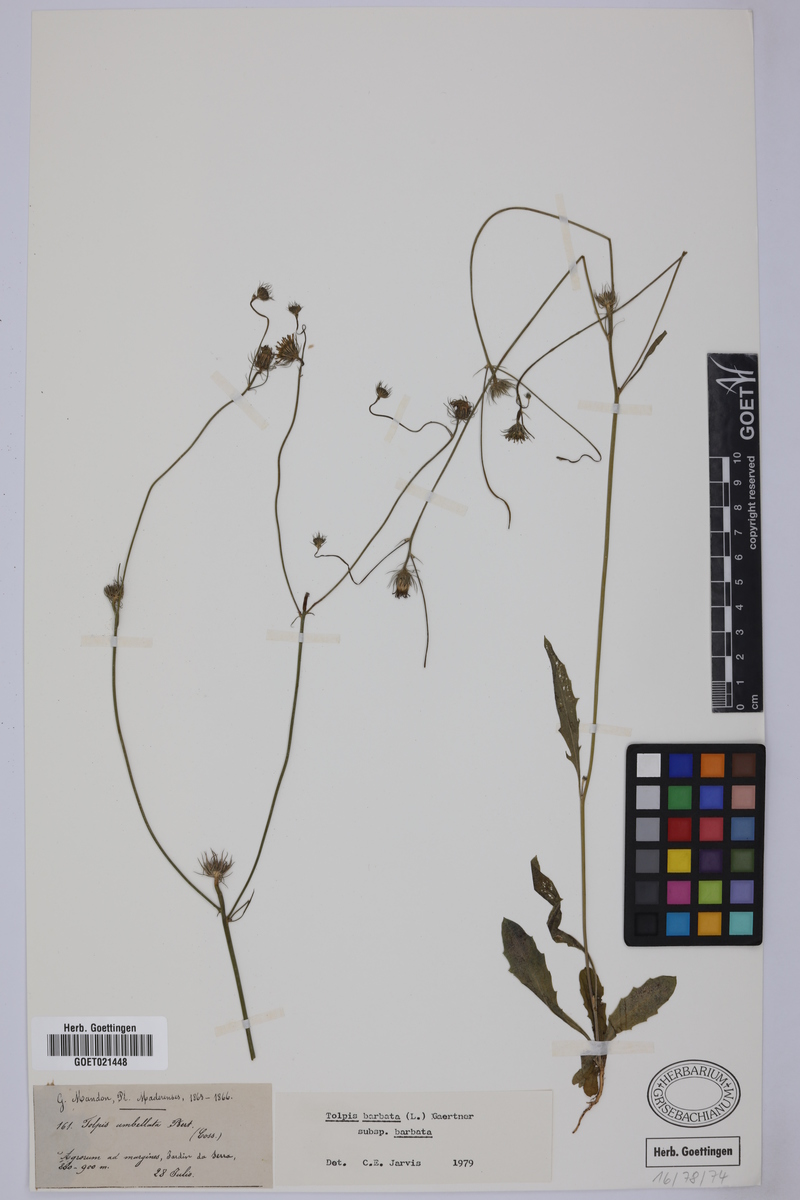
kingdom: Plantae
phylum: Tracheophyta
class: Magnoliopsida
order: Asterales
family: Asteraceae
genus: Tolpis
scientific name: Tolpis barbata
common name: Yellow hawkweed
